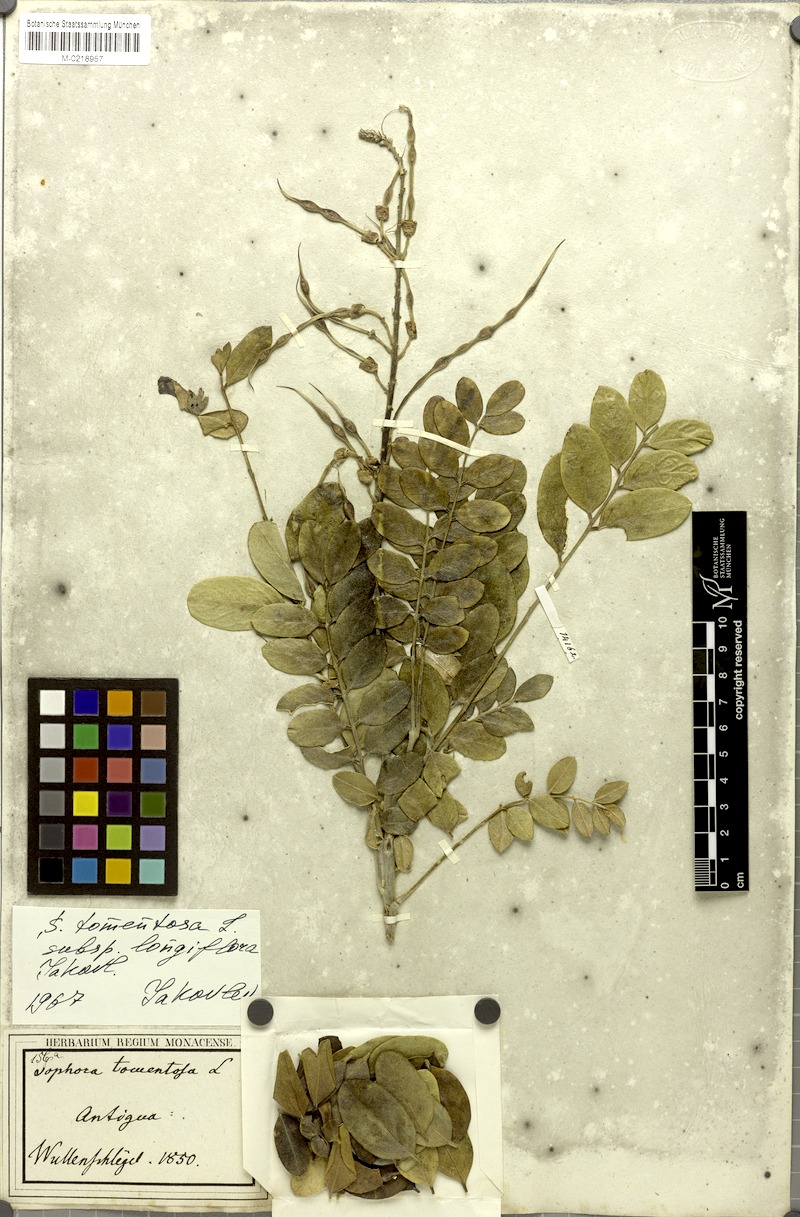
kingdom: Plantae
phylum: Tracheophyta
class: Magnoliopsida
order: Fabales
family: Fabaceae
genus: Sophora
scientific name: Sophora tomentosa
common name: Yellow necklacepod
